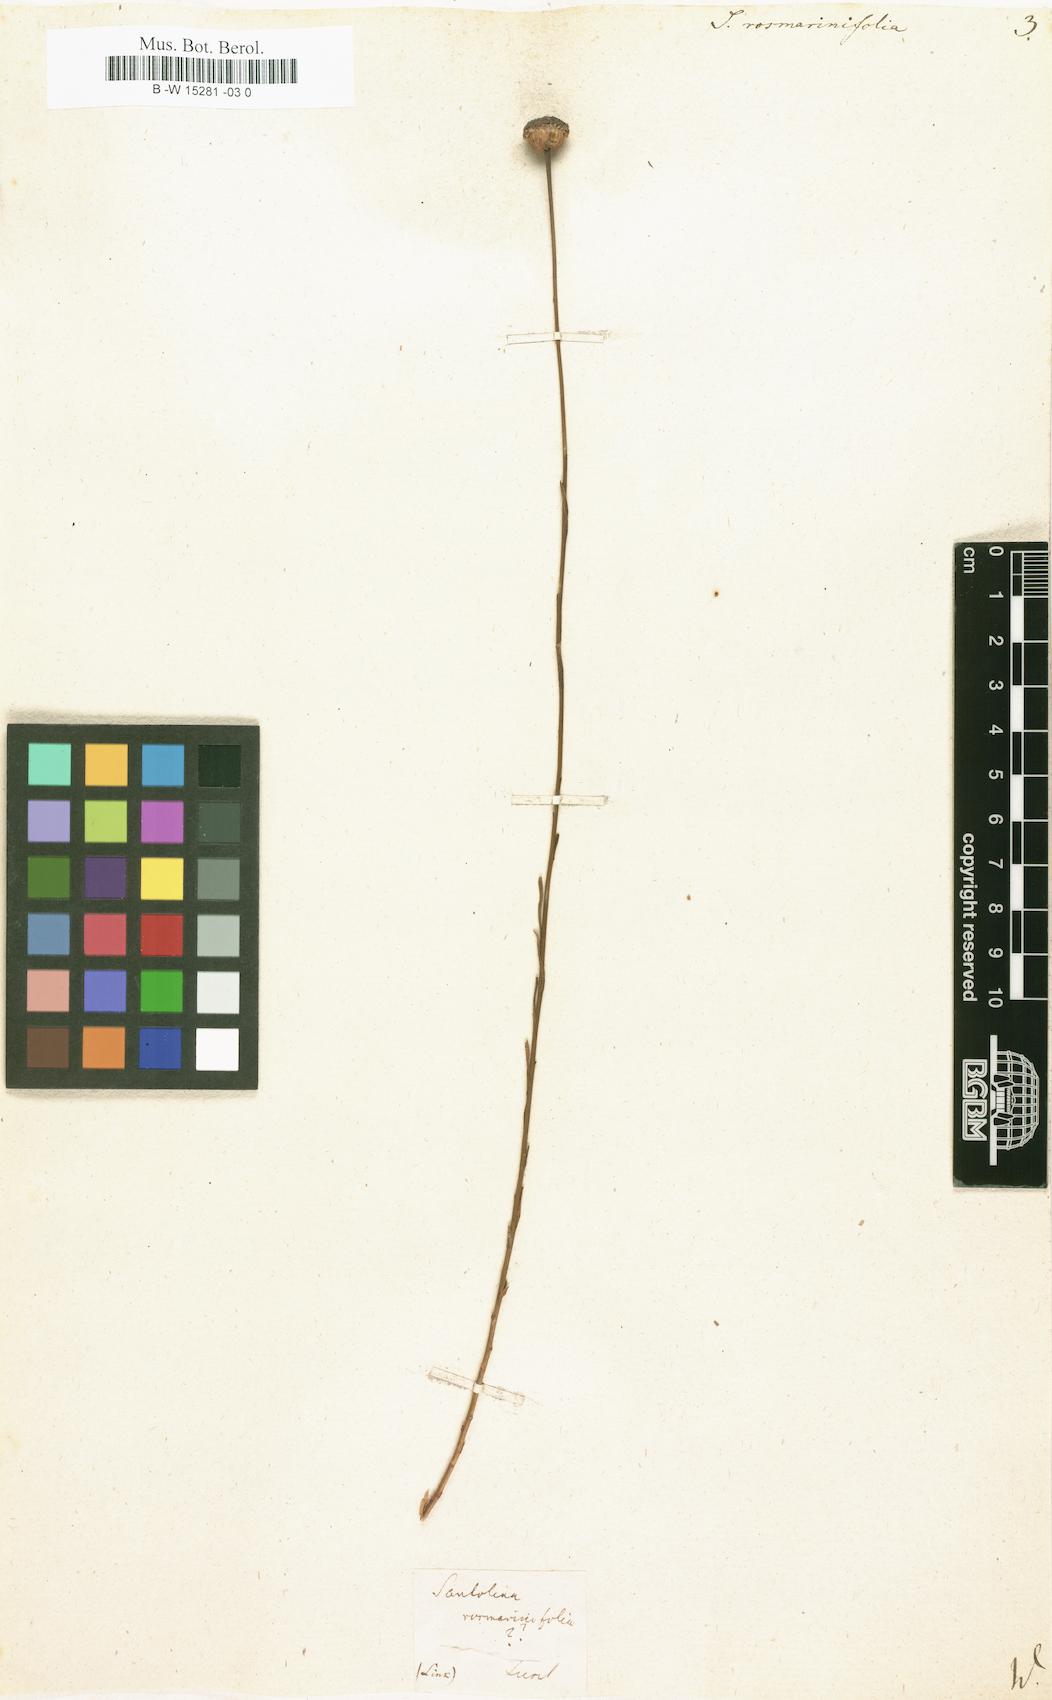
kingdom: Plantae
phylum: Tracheophyta
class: Magnoliopsida
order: Asterales
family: Asteraceae
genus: Santolina
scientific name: Santolina rosmarinifolia
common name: Holy-flax
